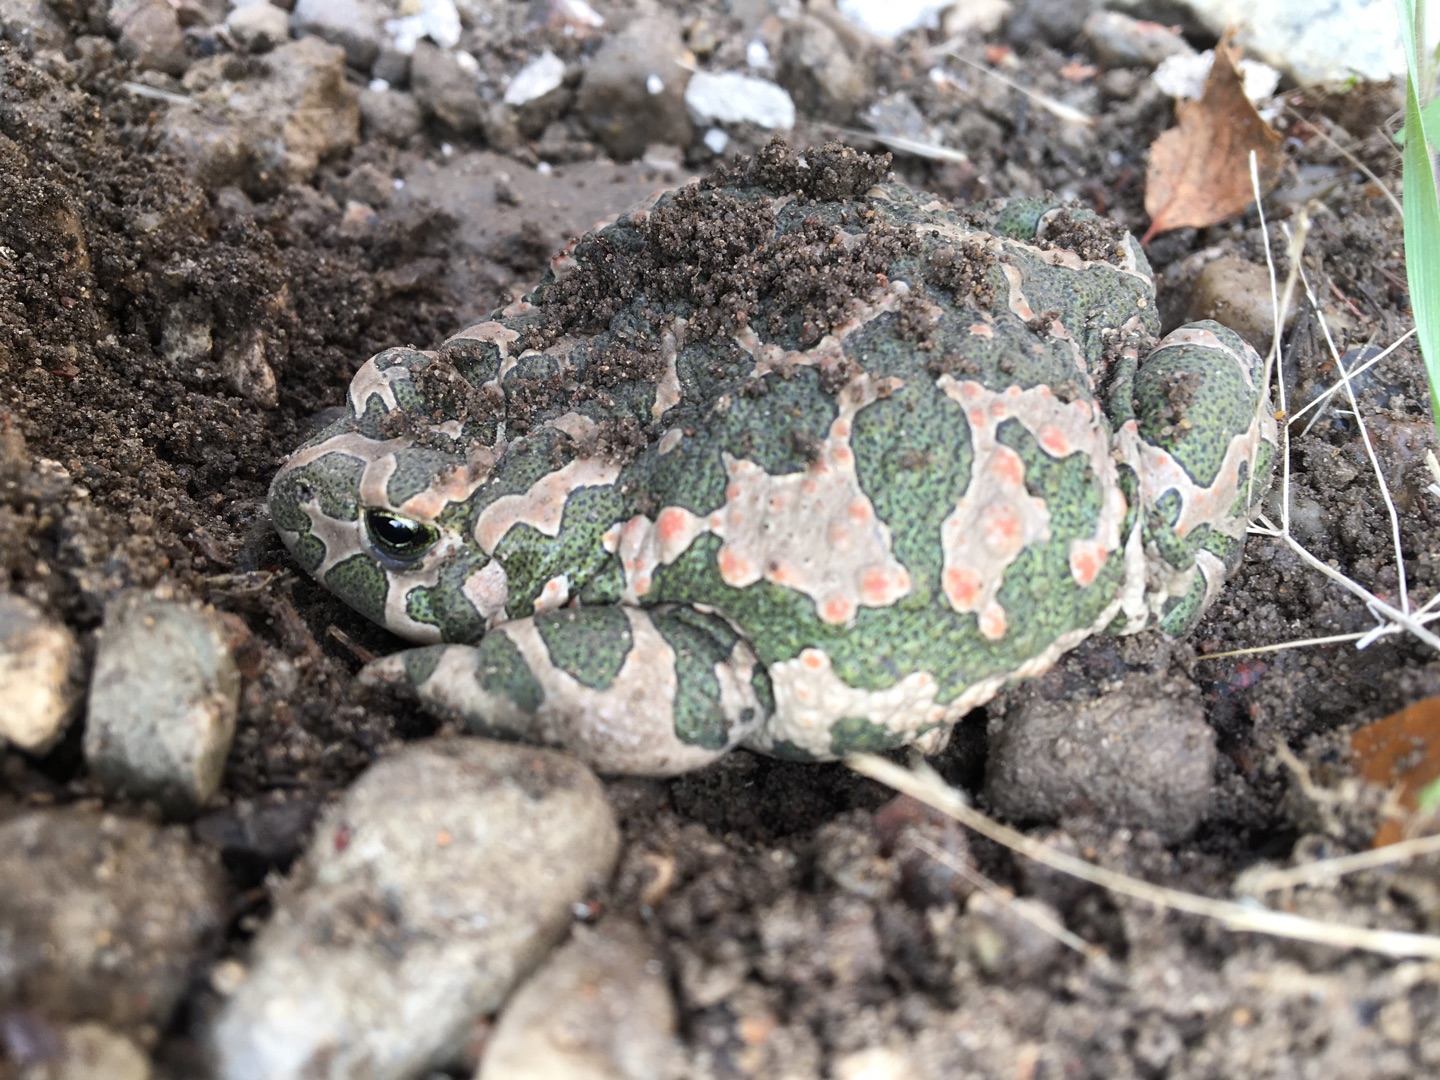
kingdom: Animalia
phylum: Chordata
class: Amphibia
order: Anura
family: Bufonidae
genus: Bufotes
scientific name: Bufotes viridis
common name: Grønbroget tudse
